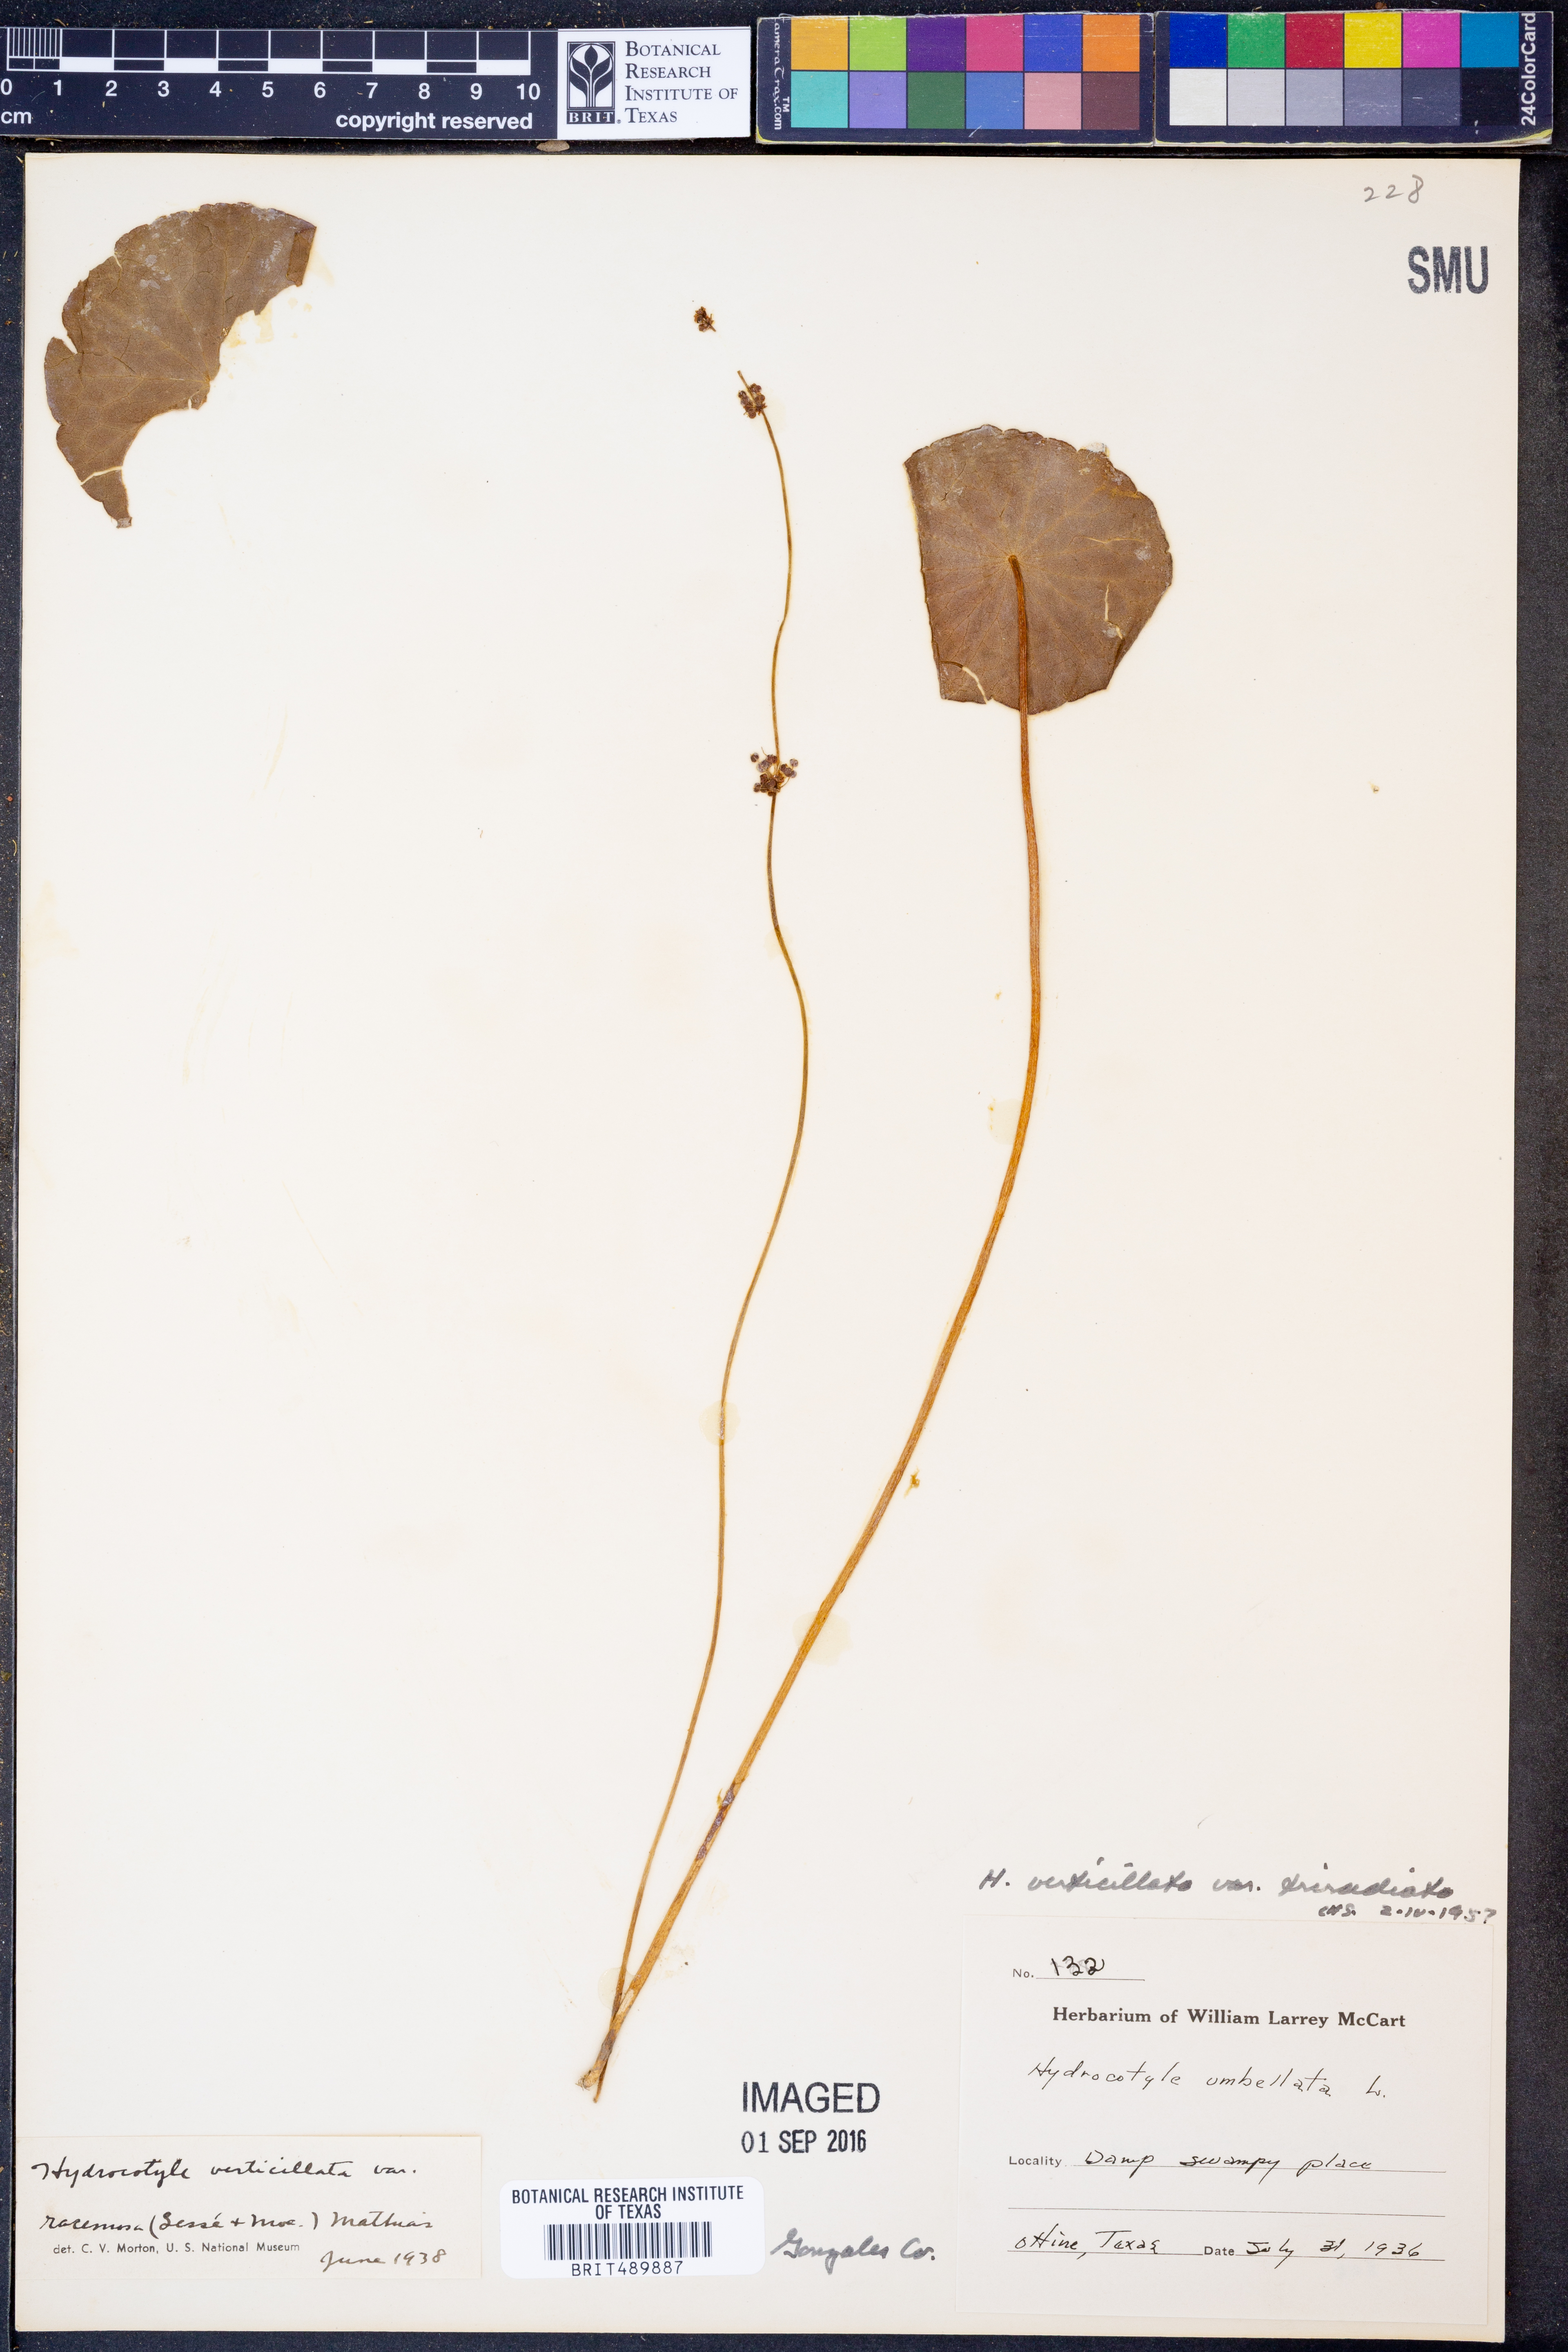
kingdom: Plantae
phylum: Tracheophyta
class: Magnoliopsida
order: Apiales
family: Araliaceae
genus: Hydrocotyle
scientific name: Hydrocotyle bonariensis
